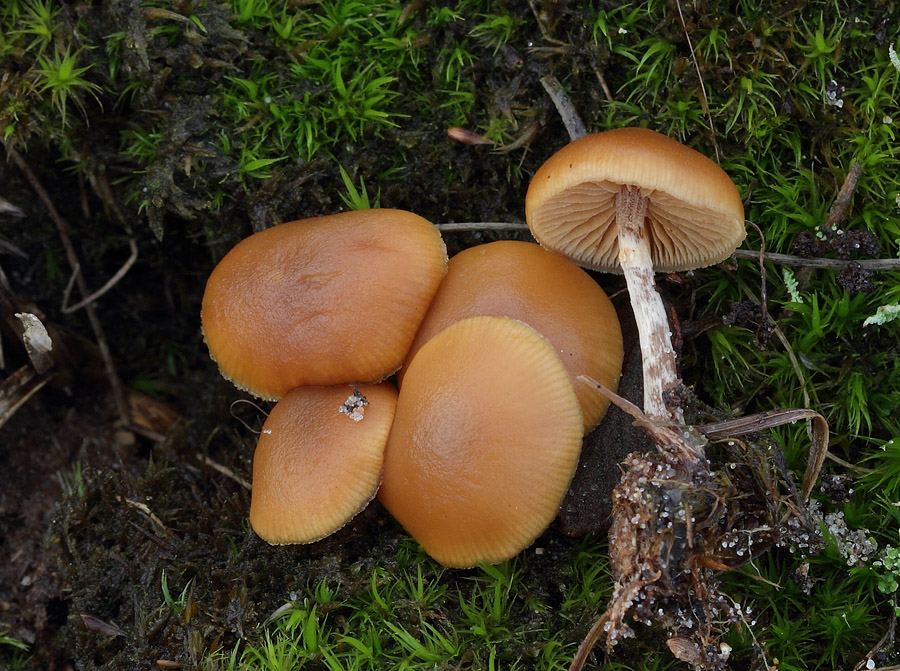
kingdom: Fungi
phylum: Basidiomycota
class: Agaricomycetes
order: Agaricales
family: Hymenogastraceae
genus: Galerina
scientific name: Galerina esteve-raventosii
